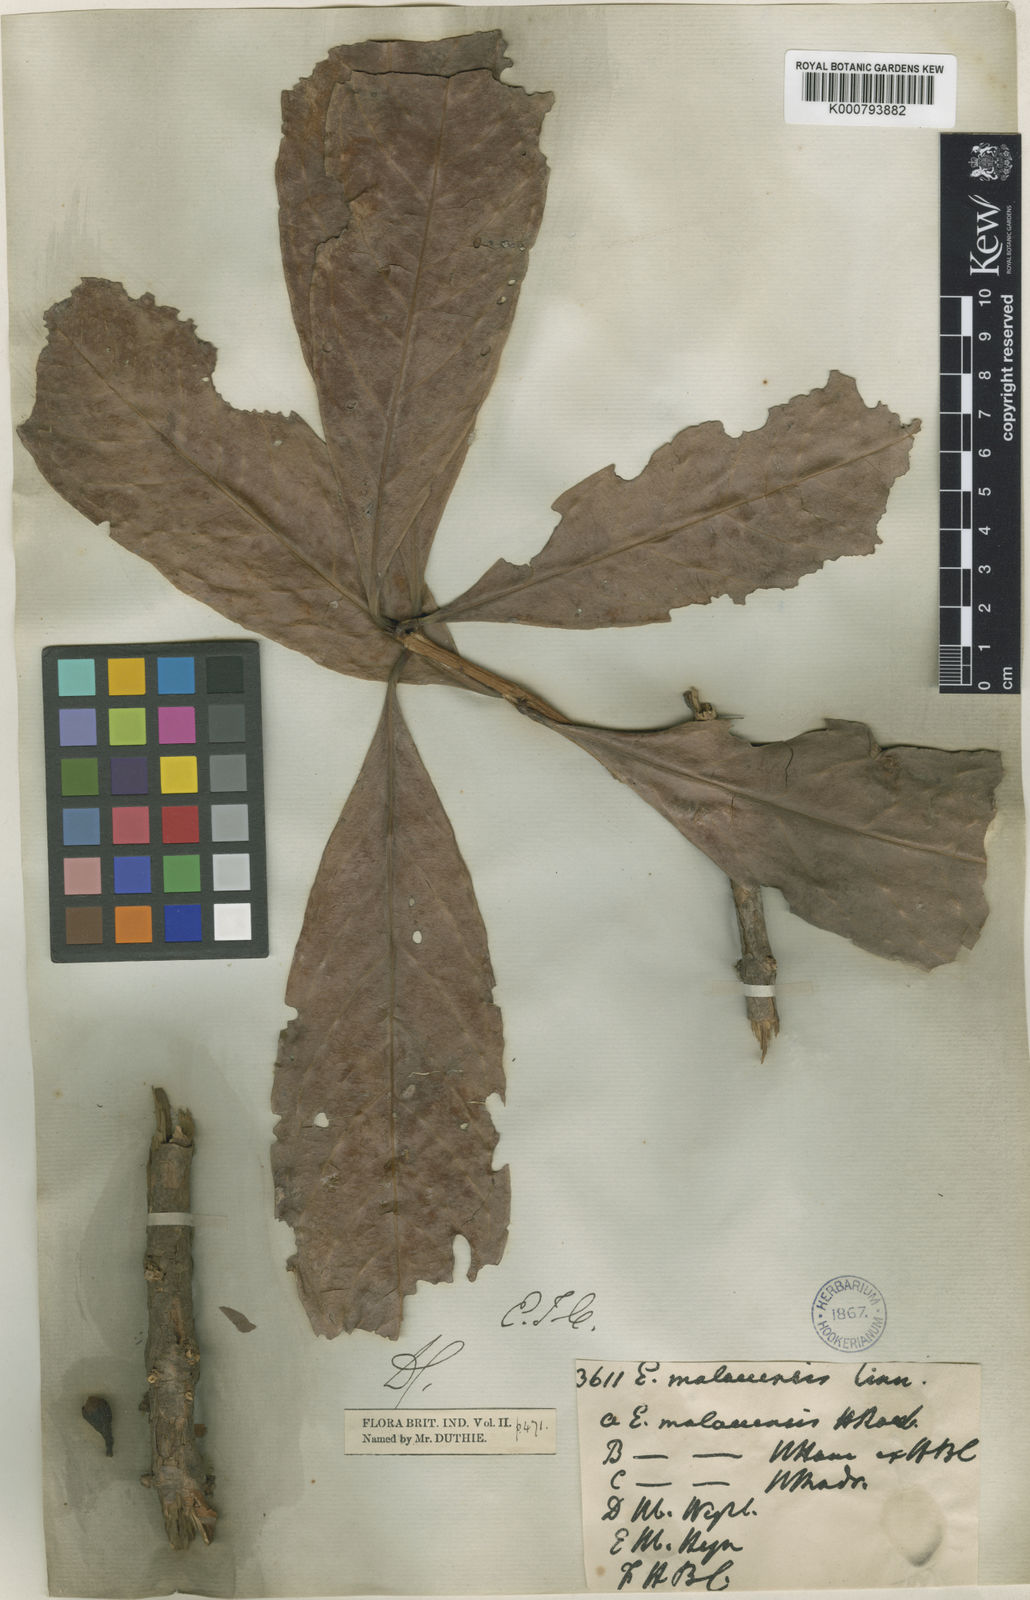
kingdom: Plantae
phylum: Tracheophyta
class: Magnoliopsida
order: Myrtales
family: Myrtaceae
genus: Syzygium
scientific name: Syzygium malaccense
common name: Malaysian apple
